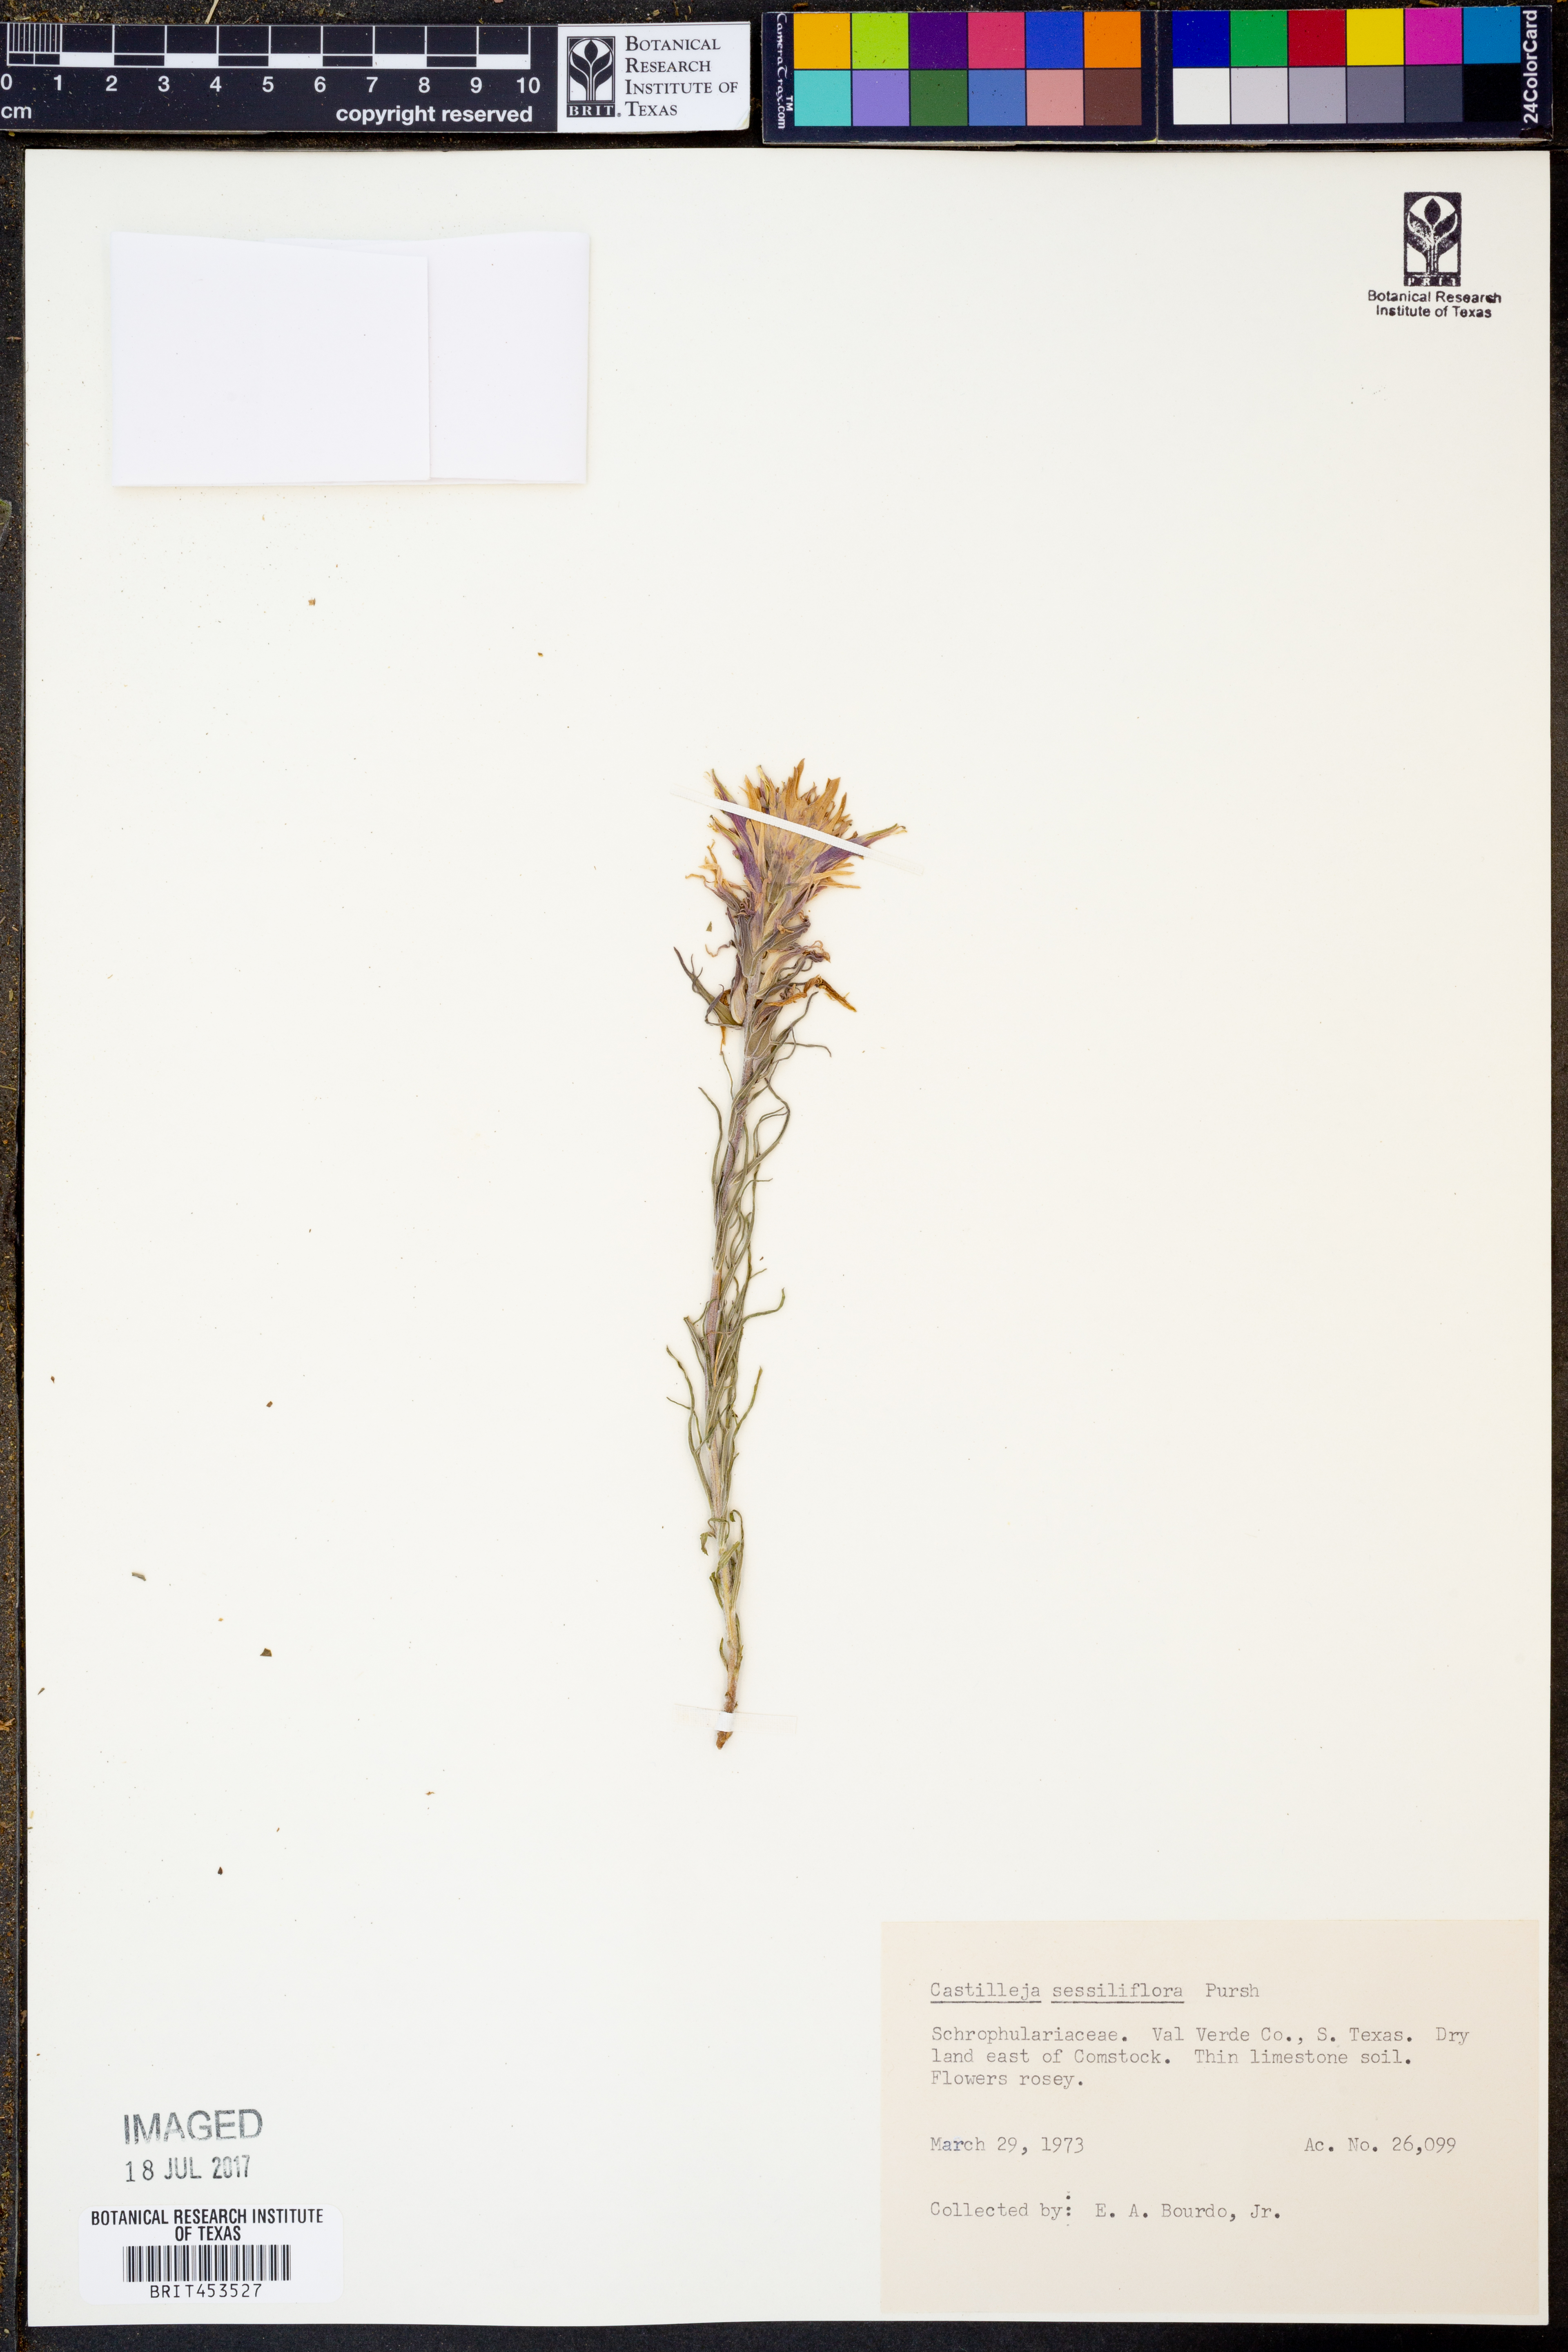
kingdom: Plantae
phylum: Tracheophyta
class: Magnoliopsida
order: Lamiales
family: Orobanchaceae
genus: Castilleja
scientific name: Castilleja sessiliflora
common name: Downy paintbrush
